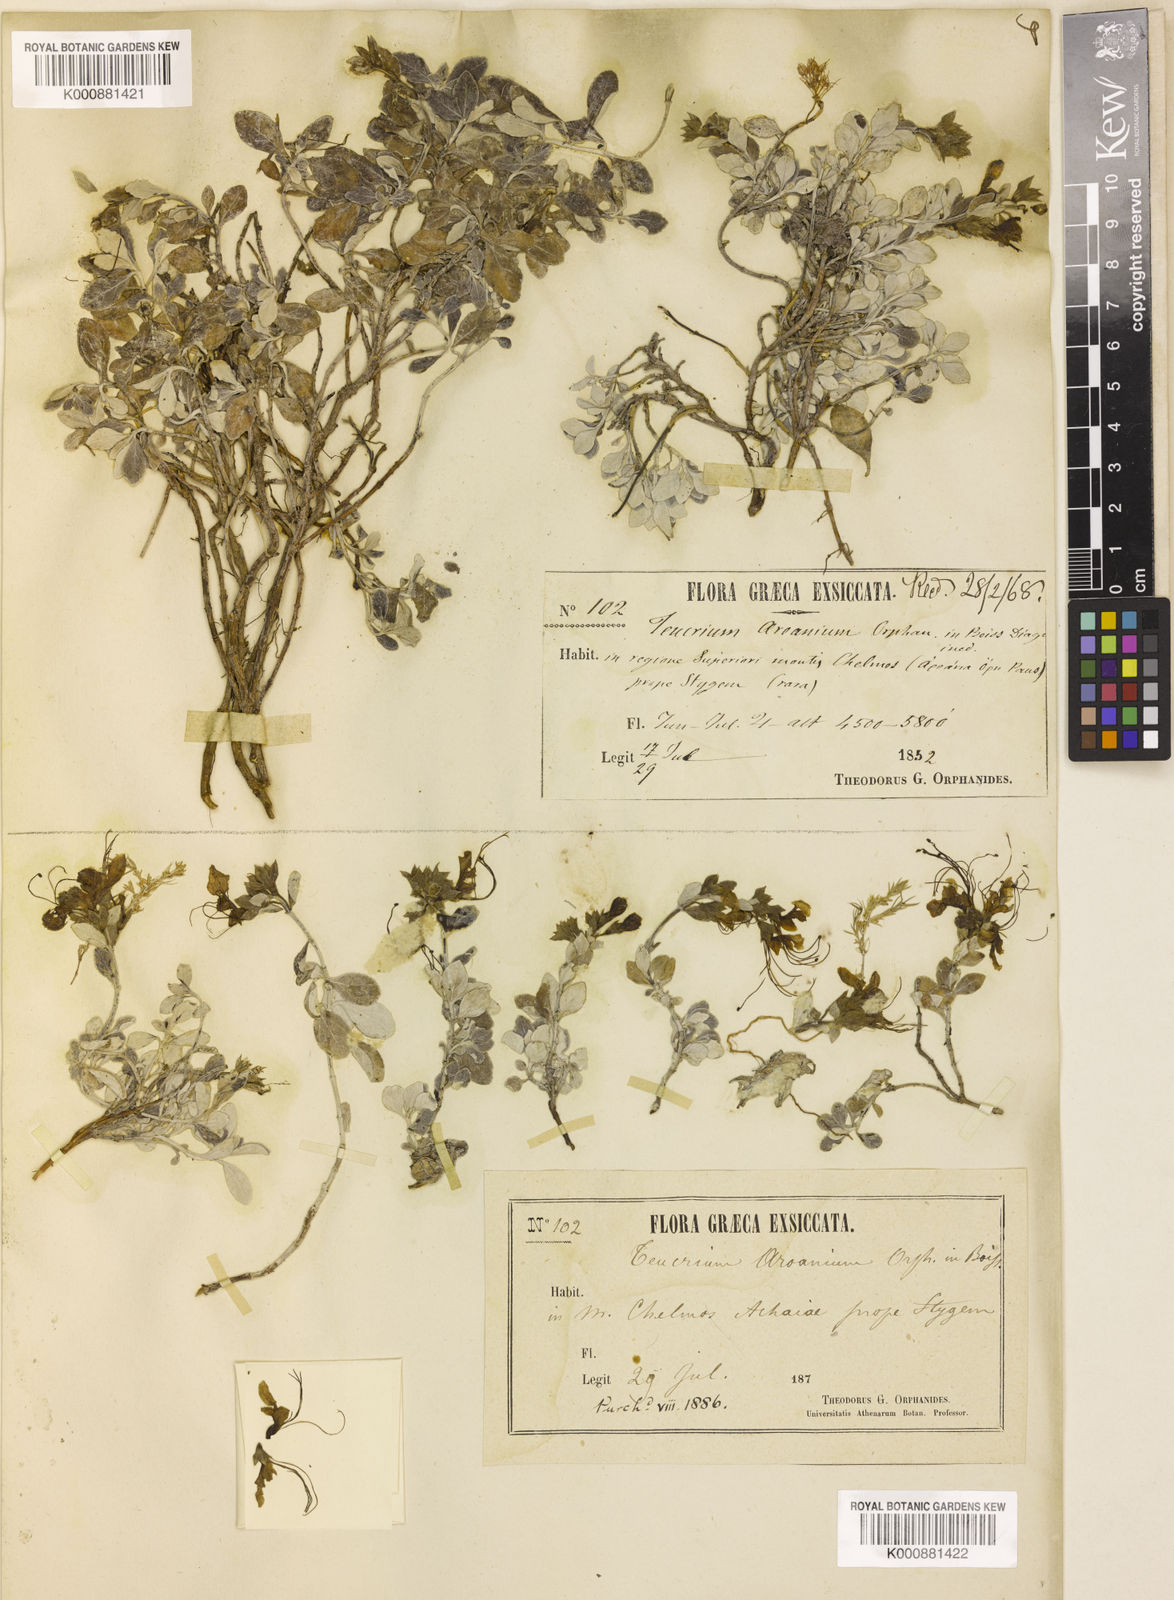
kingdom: Plantae
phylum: Tracheophyta
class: Magnoliopsida
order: Lamiales
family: Lamiaceae
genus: Teucrium
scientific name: Teucrium aroanium
